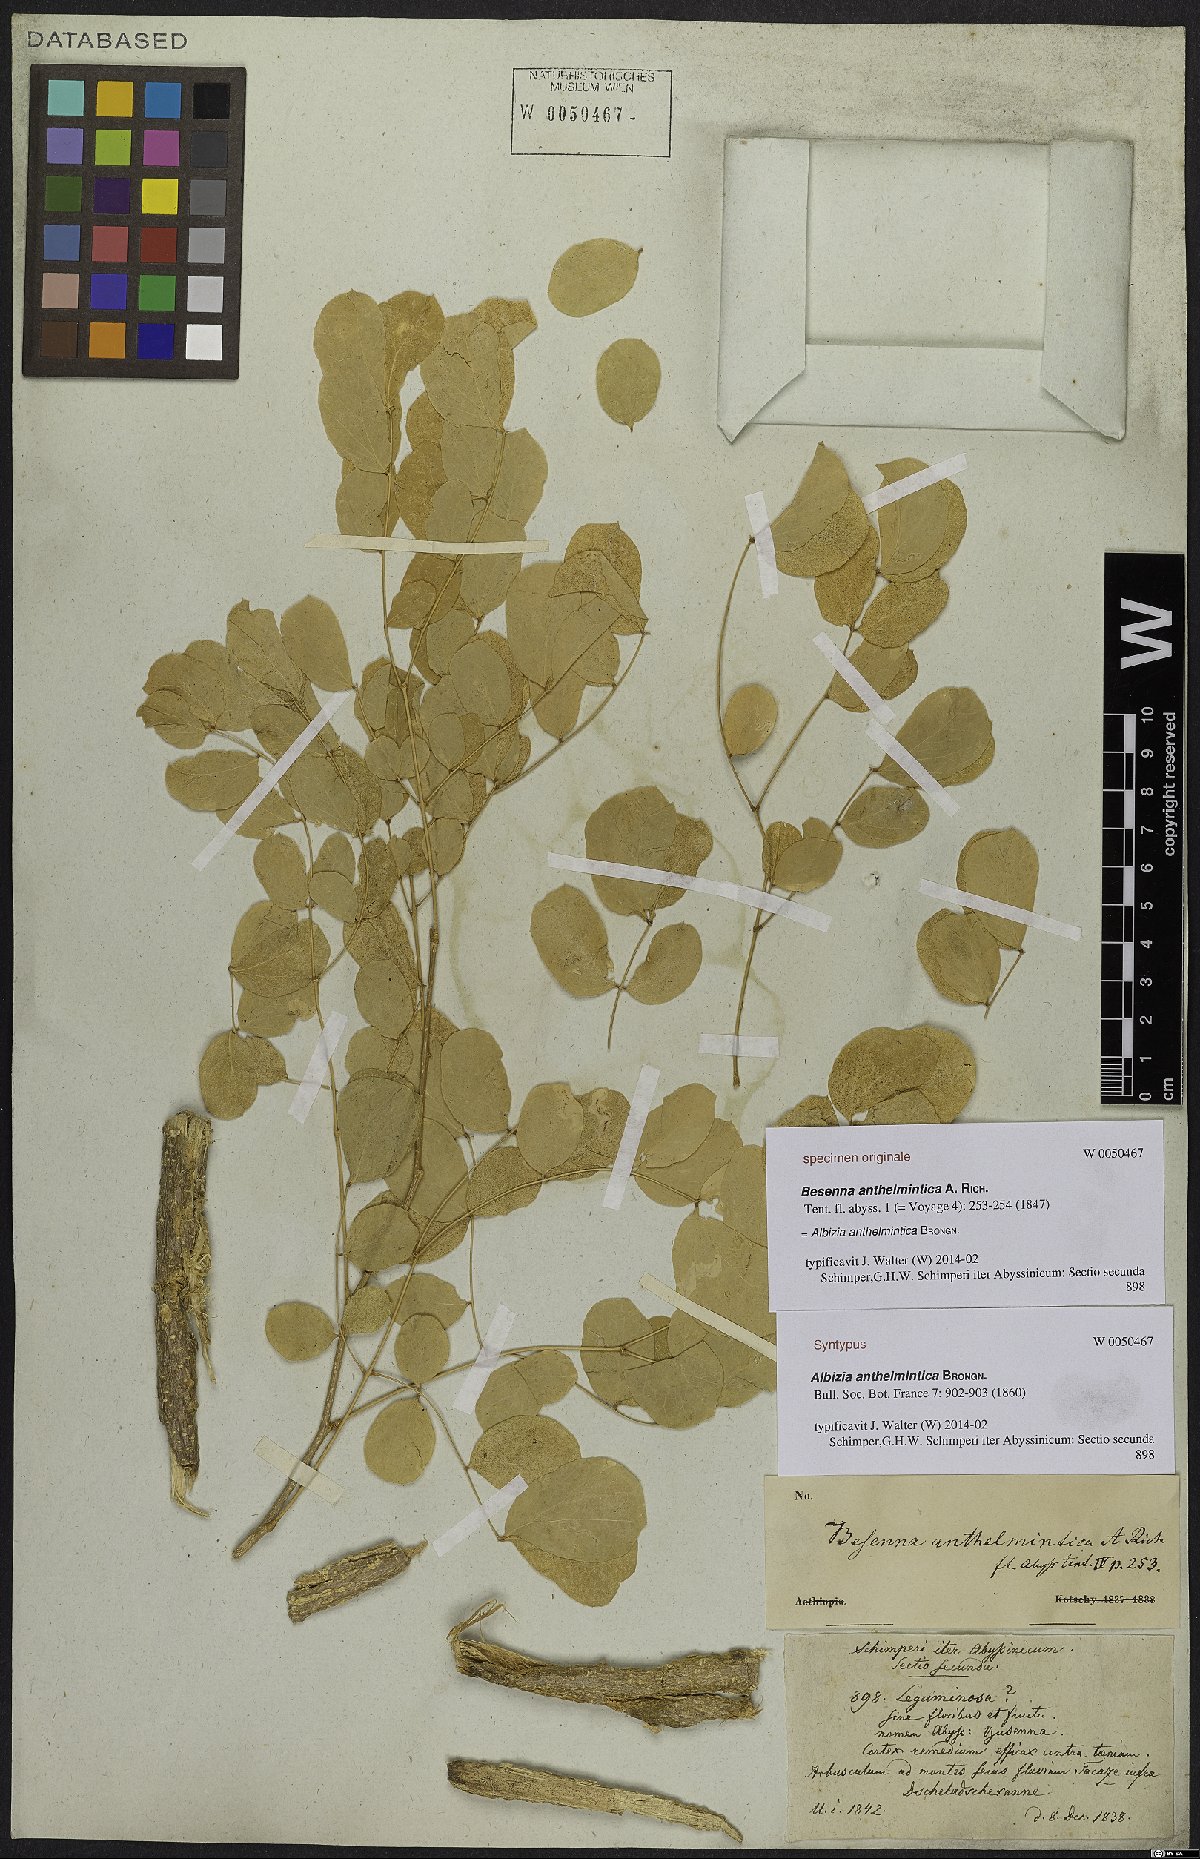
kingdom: Plantae
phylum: Tracheophyta
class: Magnoliopsida
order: Fabales
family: Fabaceae
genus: Albizia
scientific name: Albizia anthelmintica
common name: Worm-bark false-thorn
